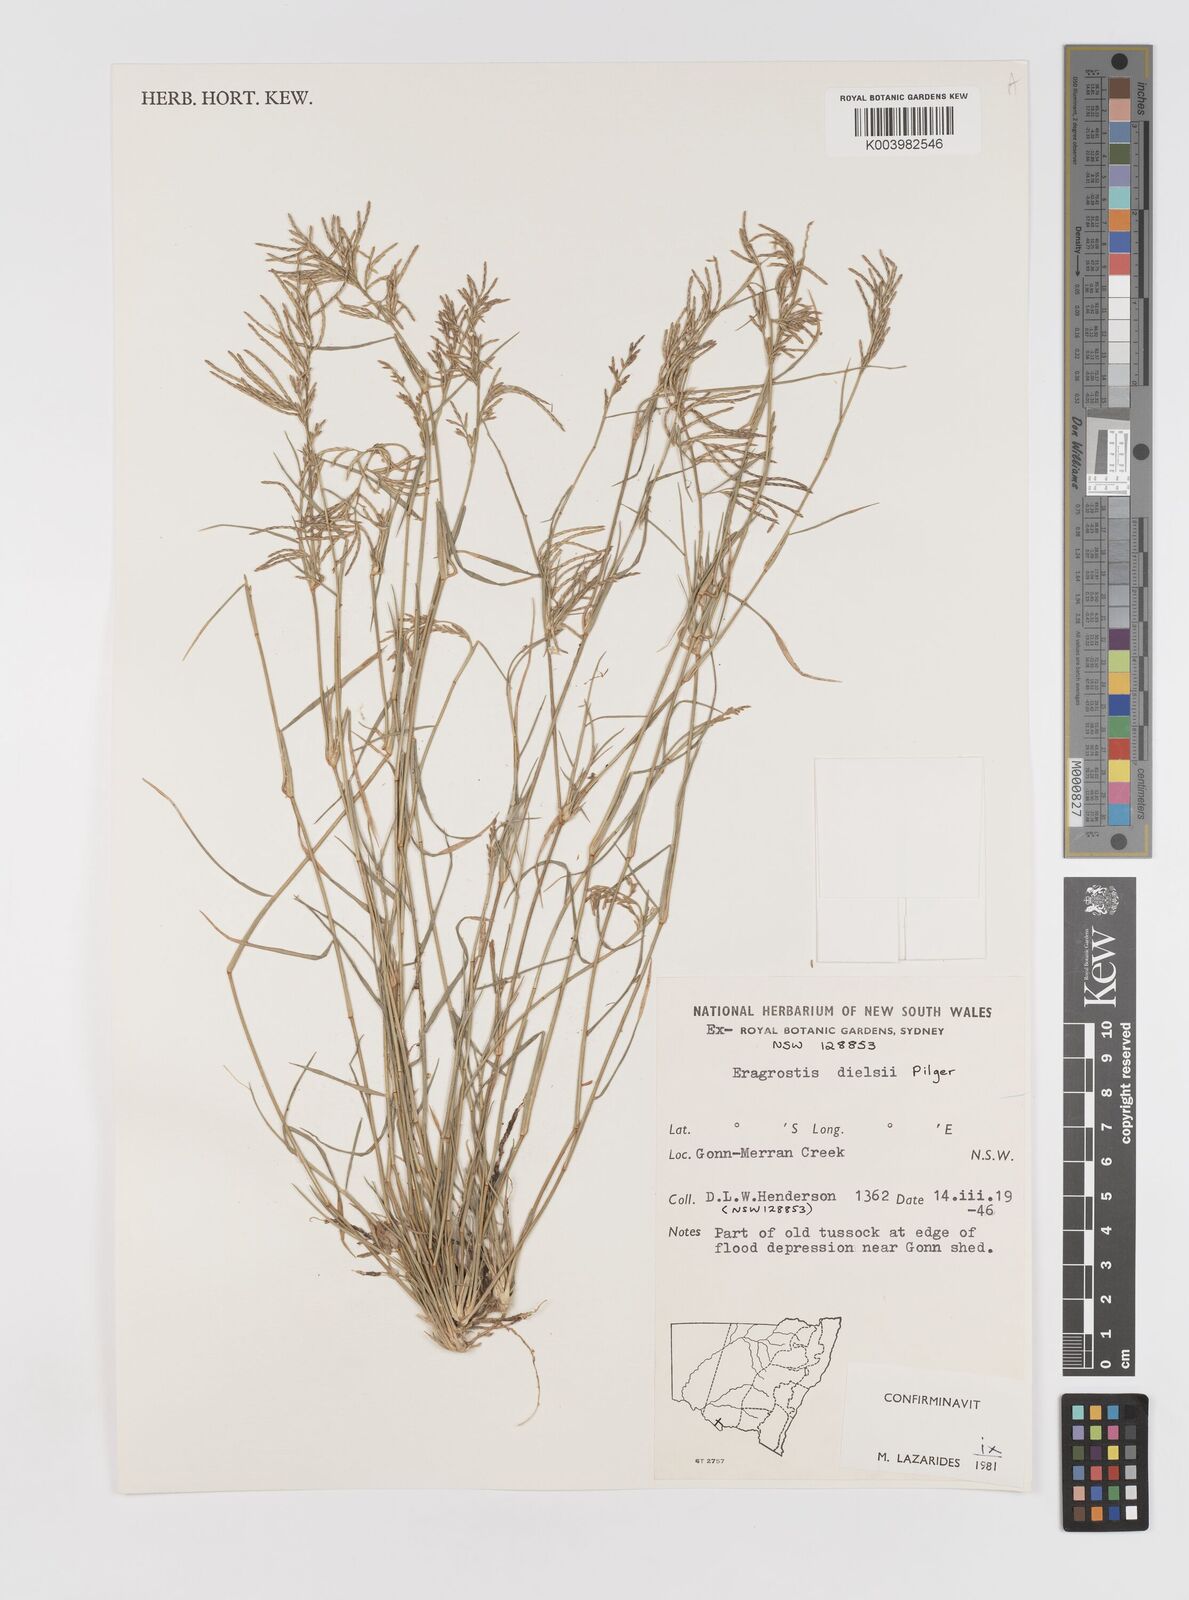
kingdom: Plantae
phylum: Tracheophyta
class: Liliopsida
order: Poales
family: Poaceae
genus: Eragrostis
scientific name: Eragrostis dielsii
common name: Lovegrass
